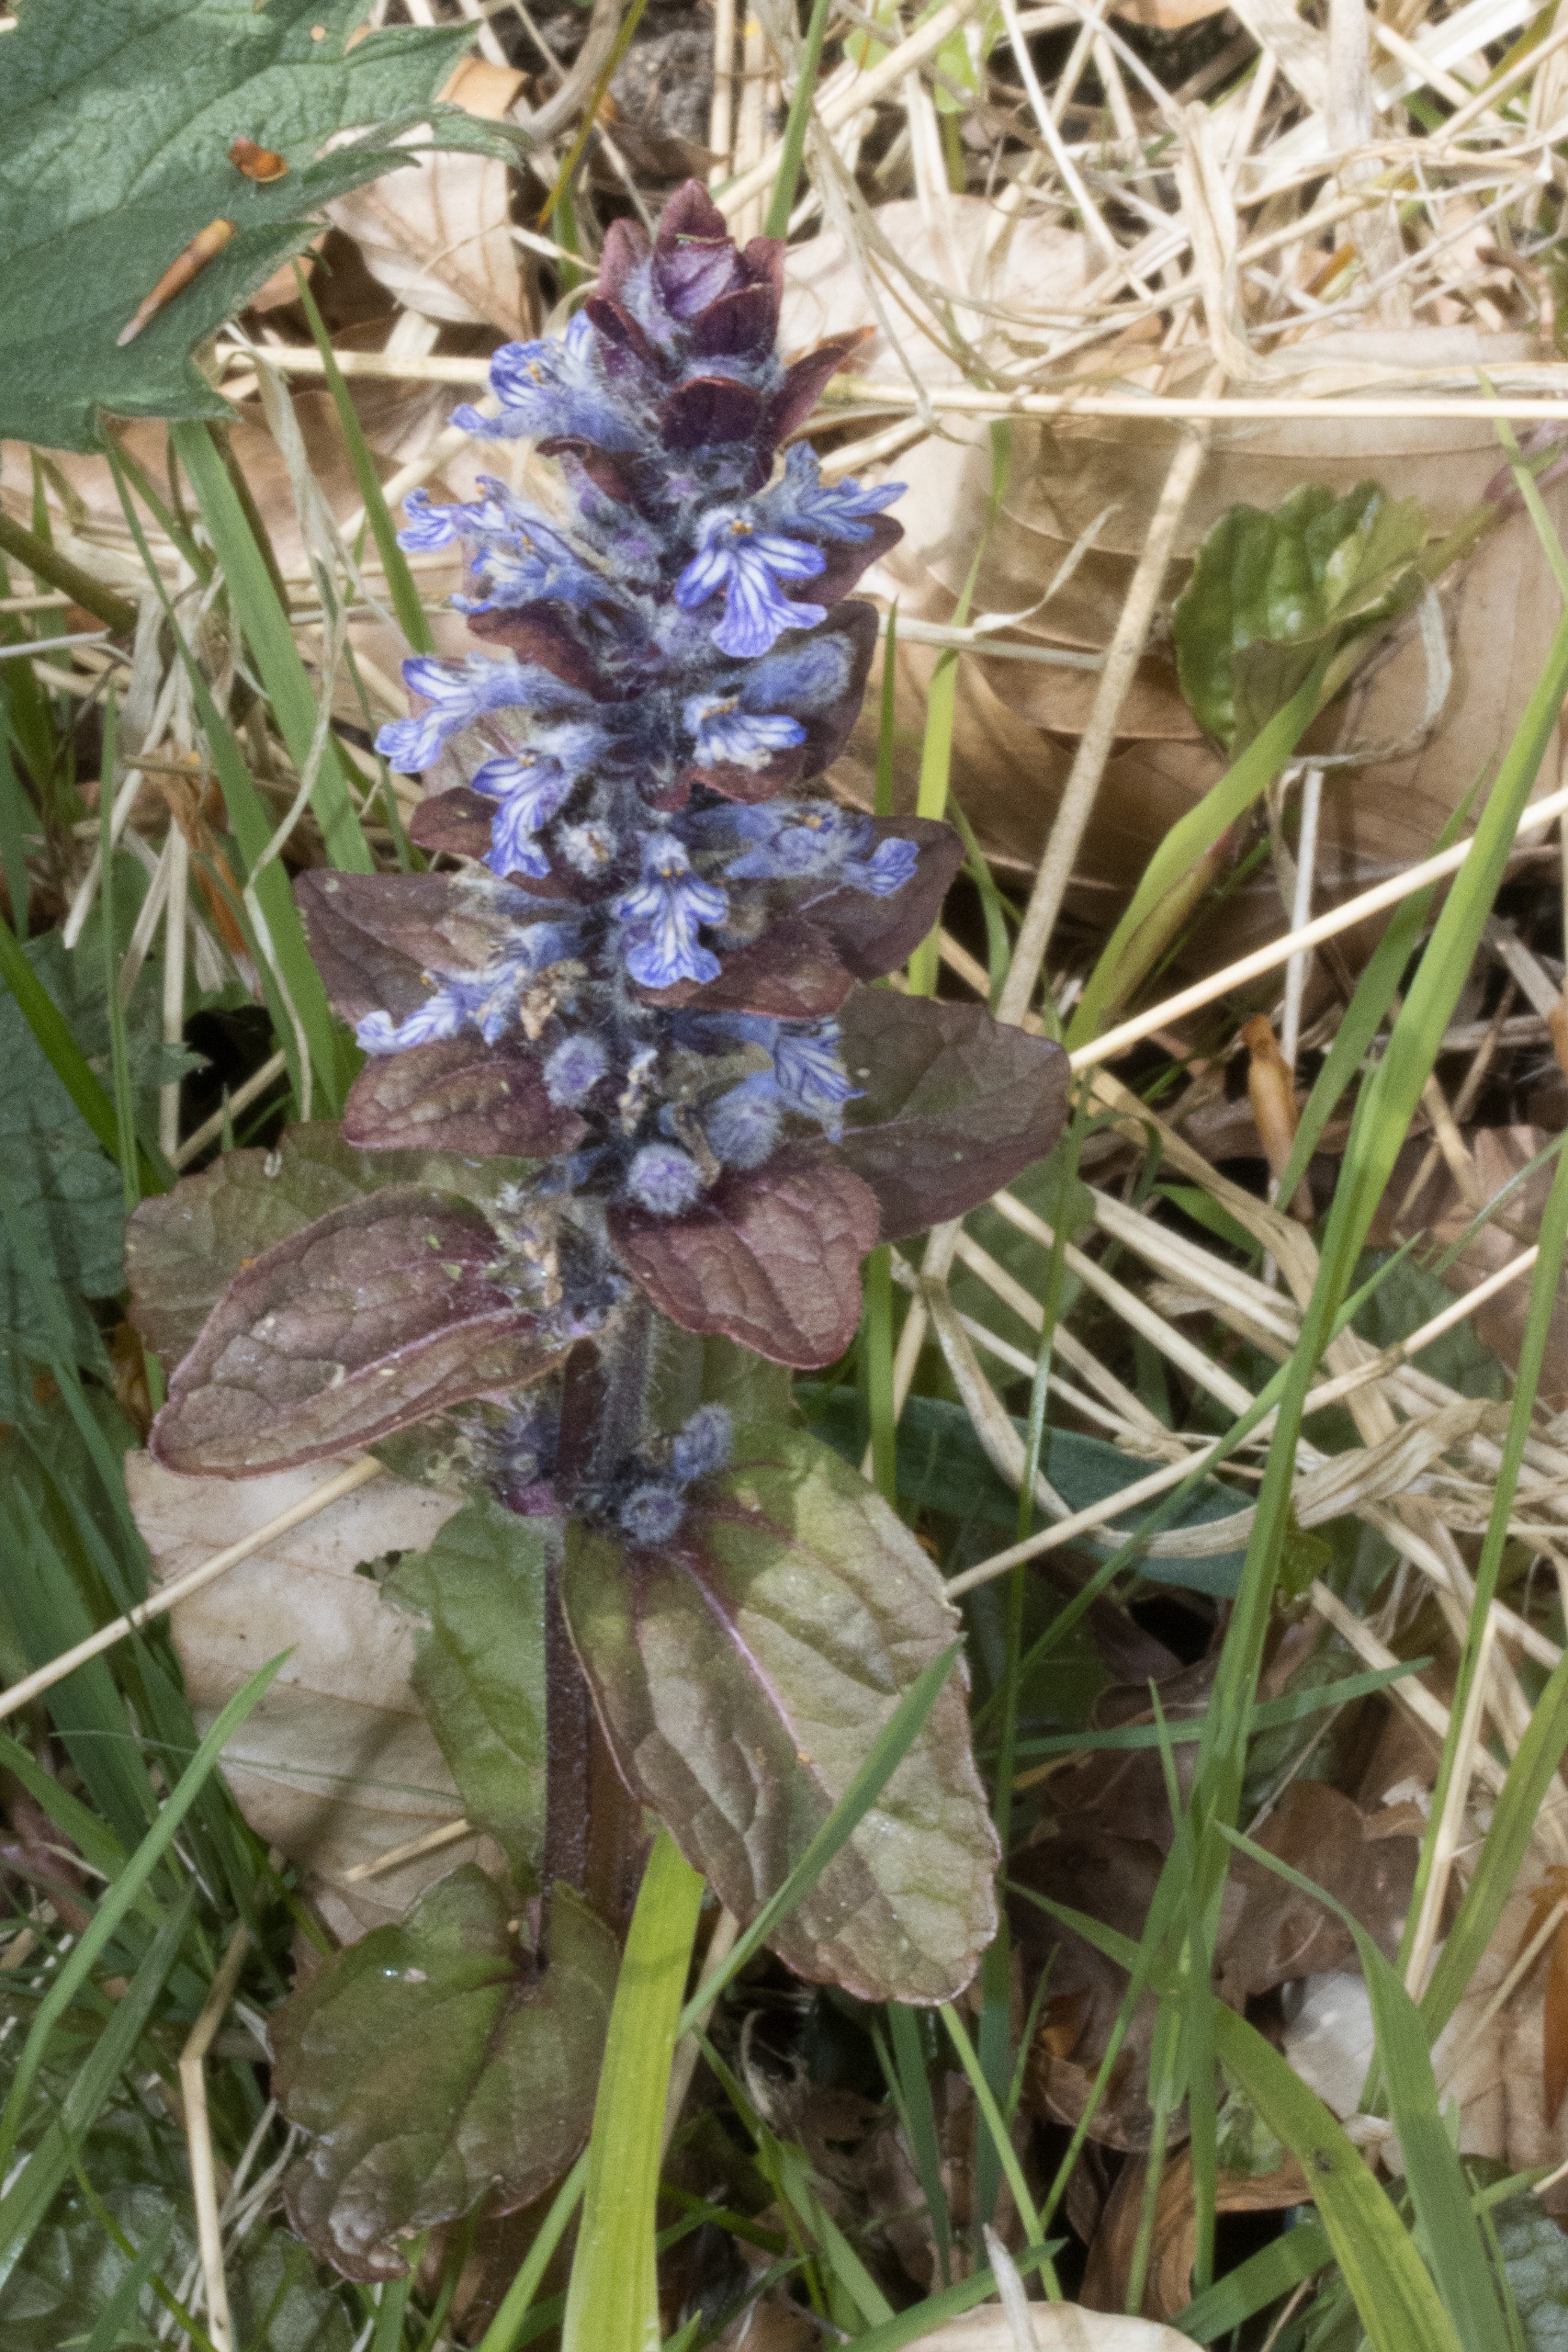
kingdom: Plantae
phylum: Tracheophyta
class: Magnoliopsida
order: Lamiales
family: Lamiaceae
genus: Ajuga
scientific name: Ajuga reptans
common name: Krybende læbeløs
